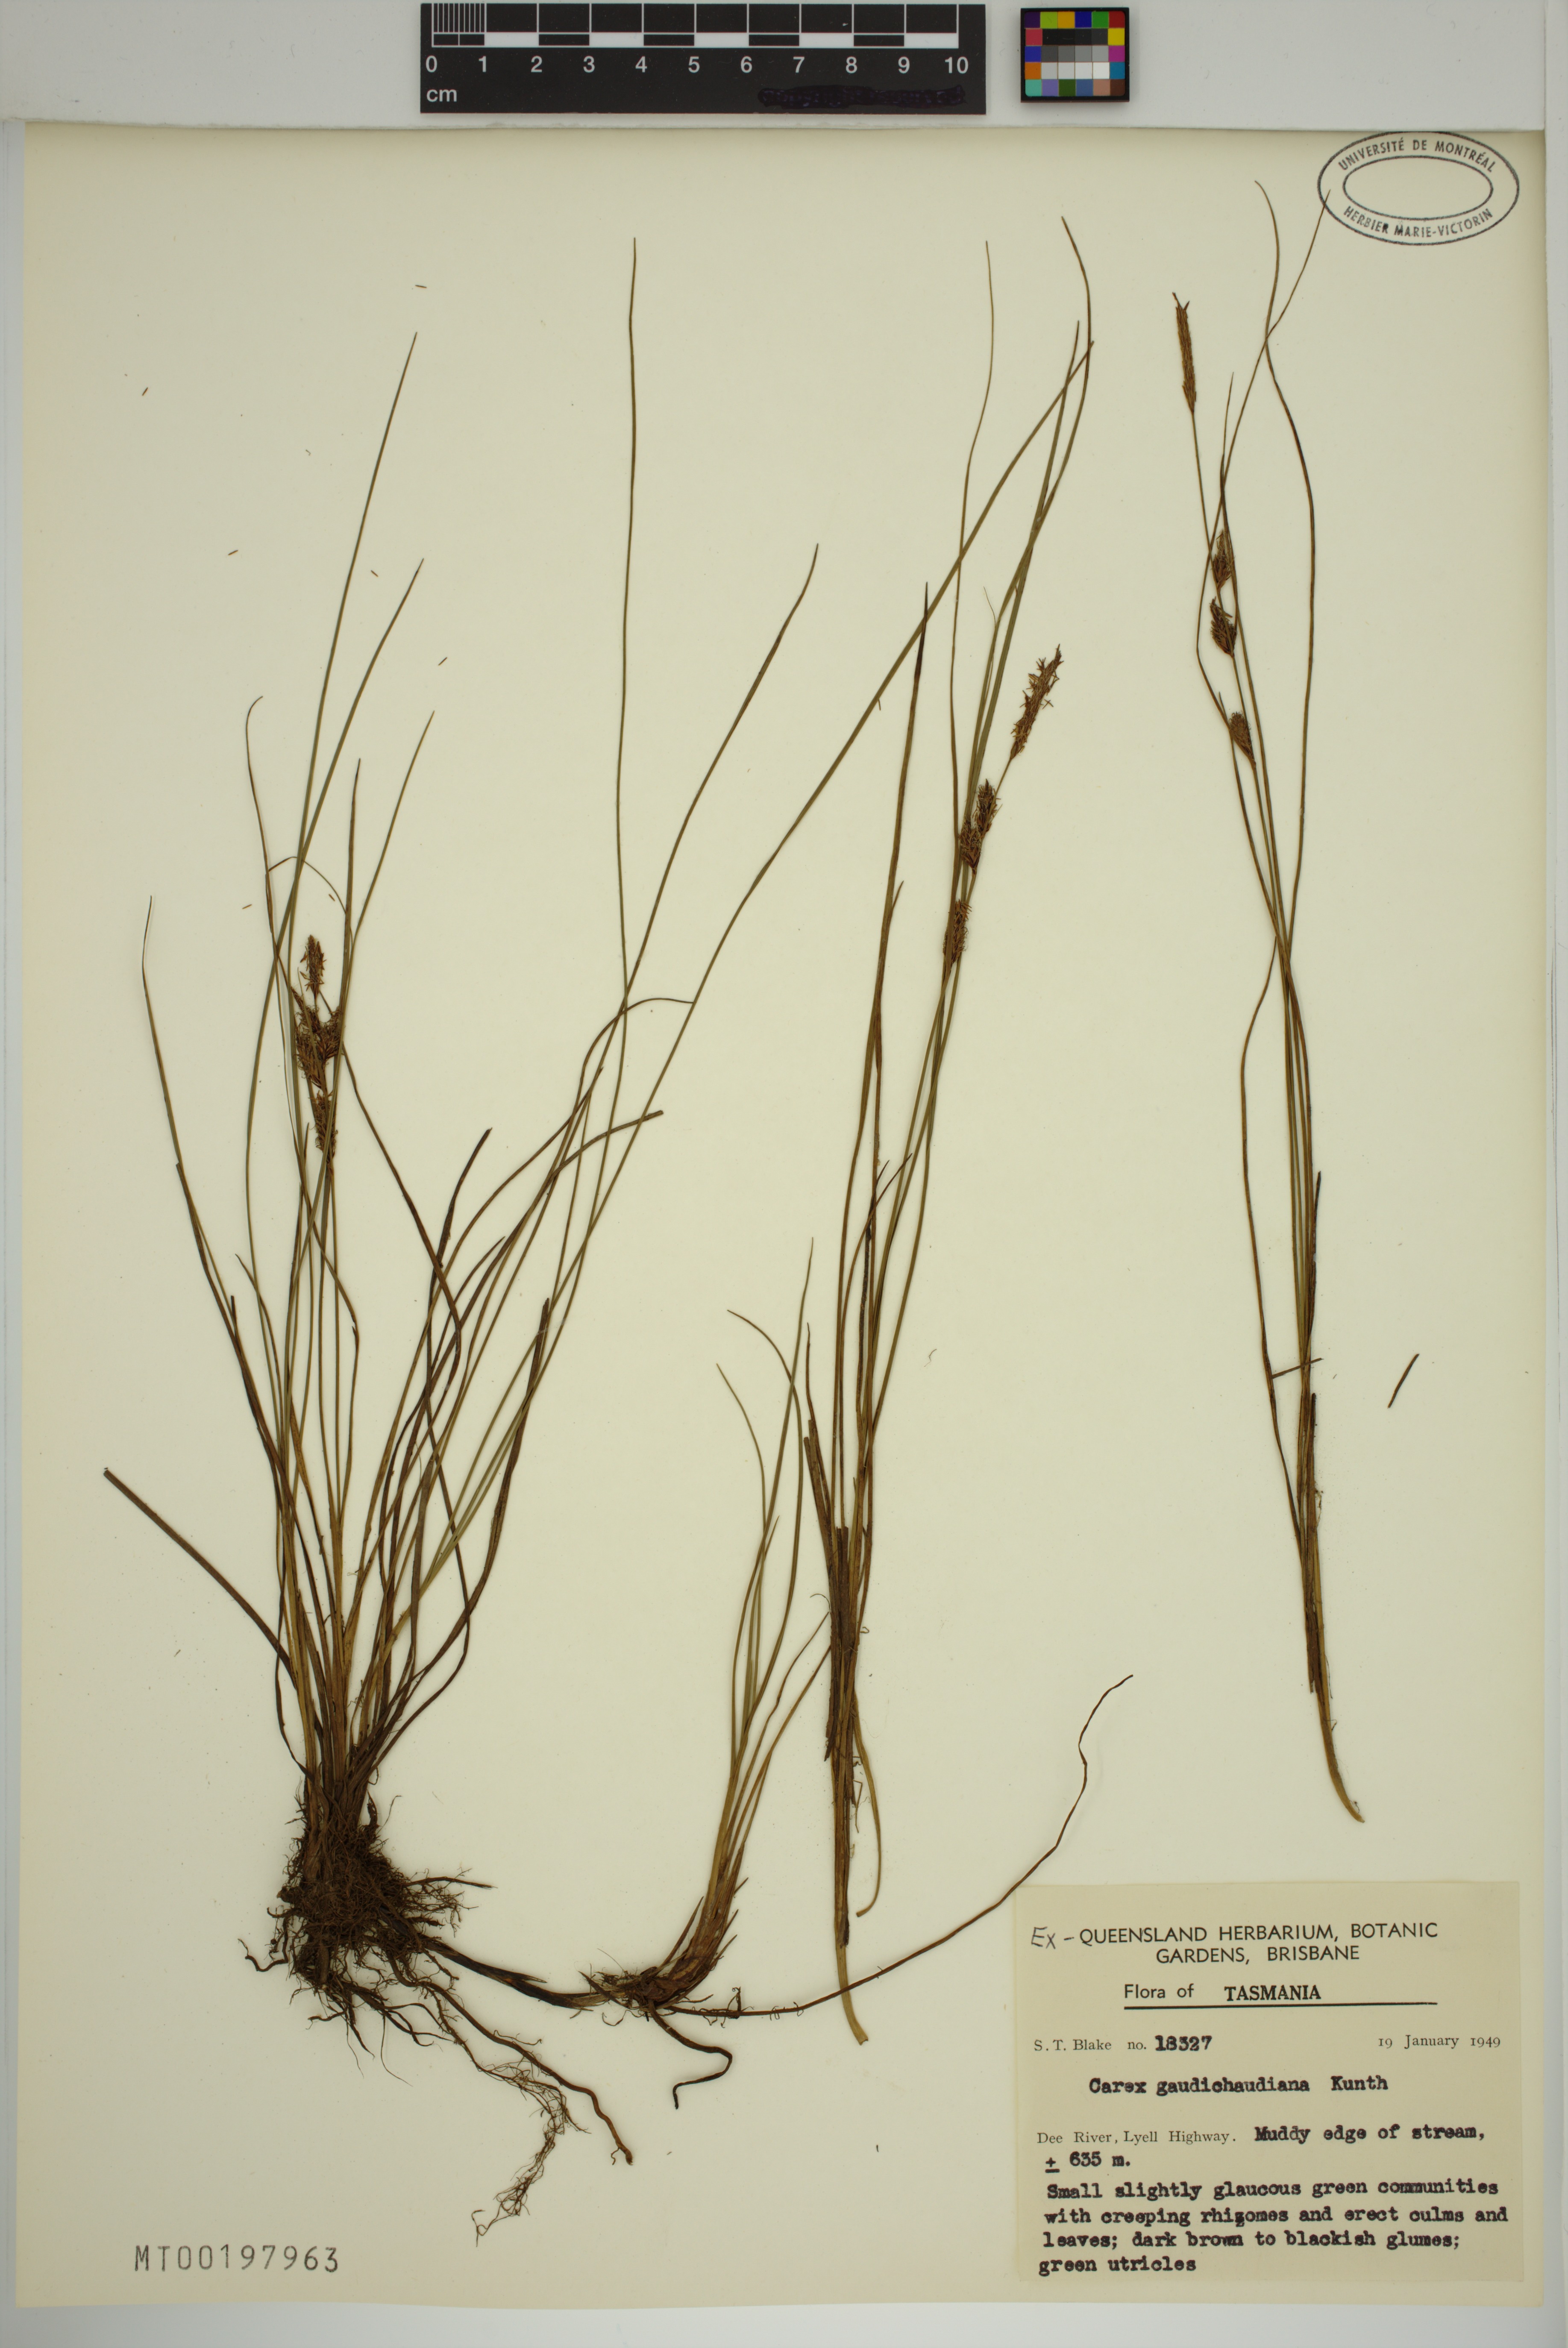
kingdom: Plantae
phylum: Tracheophyta
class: Liliopsida
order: Poales
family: Cyperaceae
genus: Carex
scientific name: Carex gaudichaudiana
